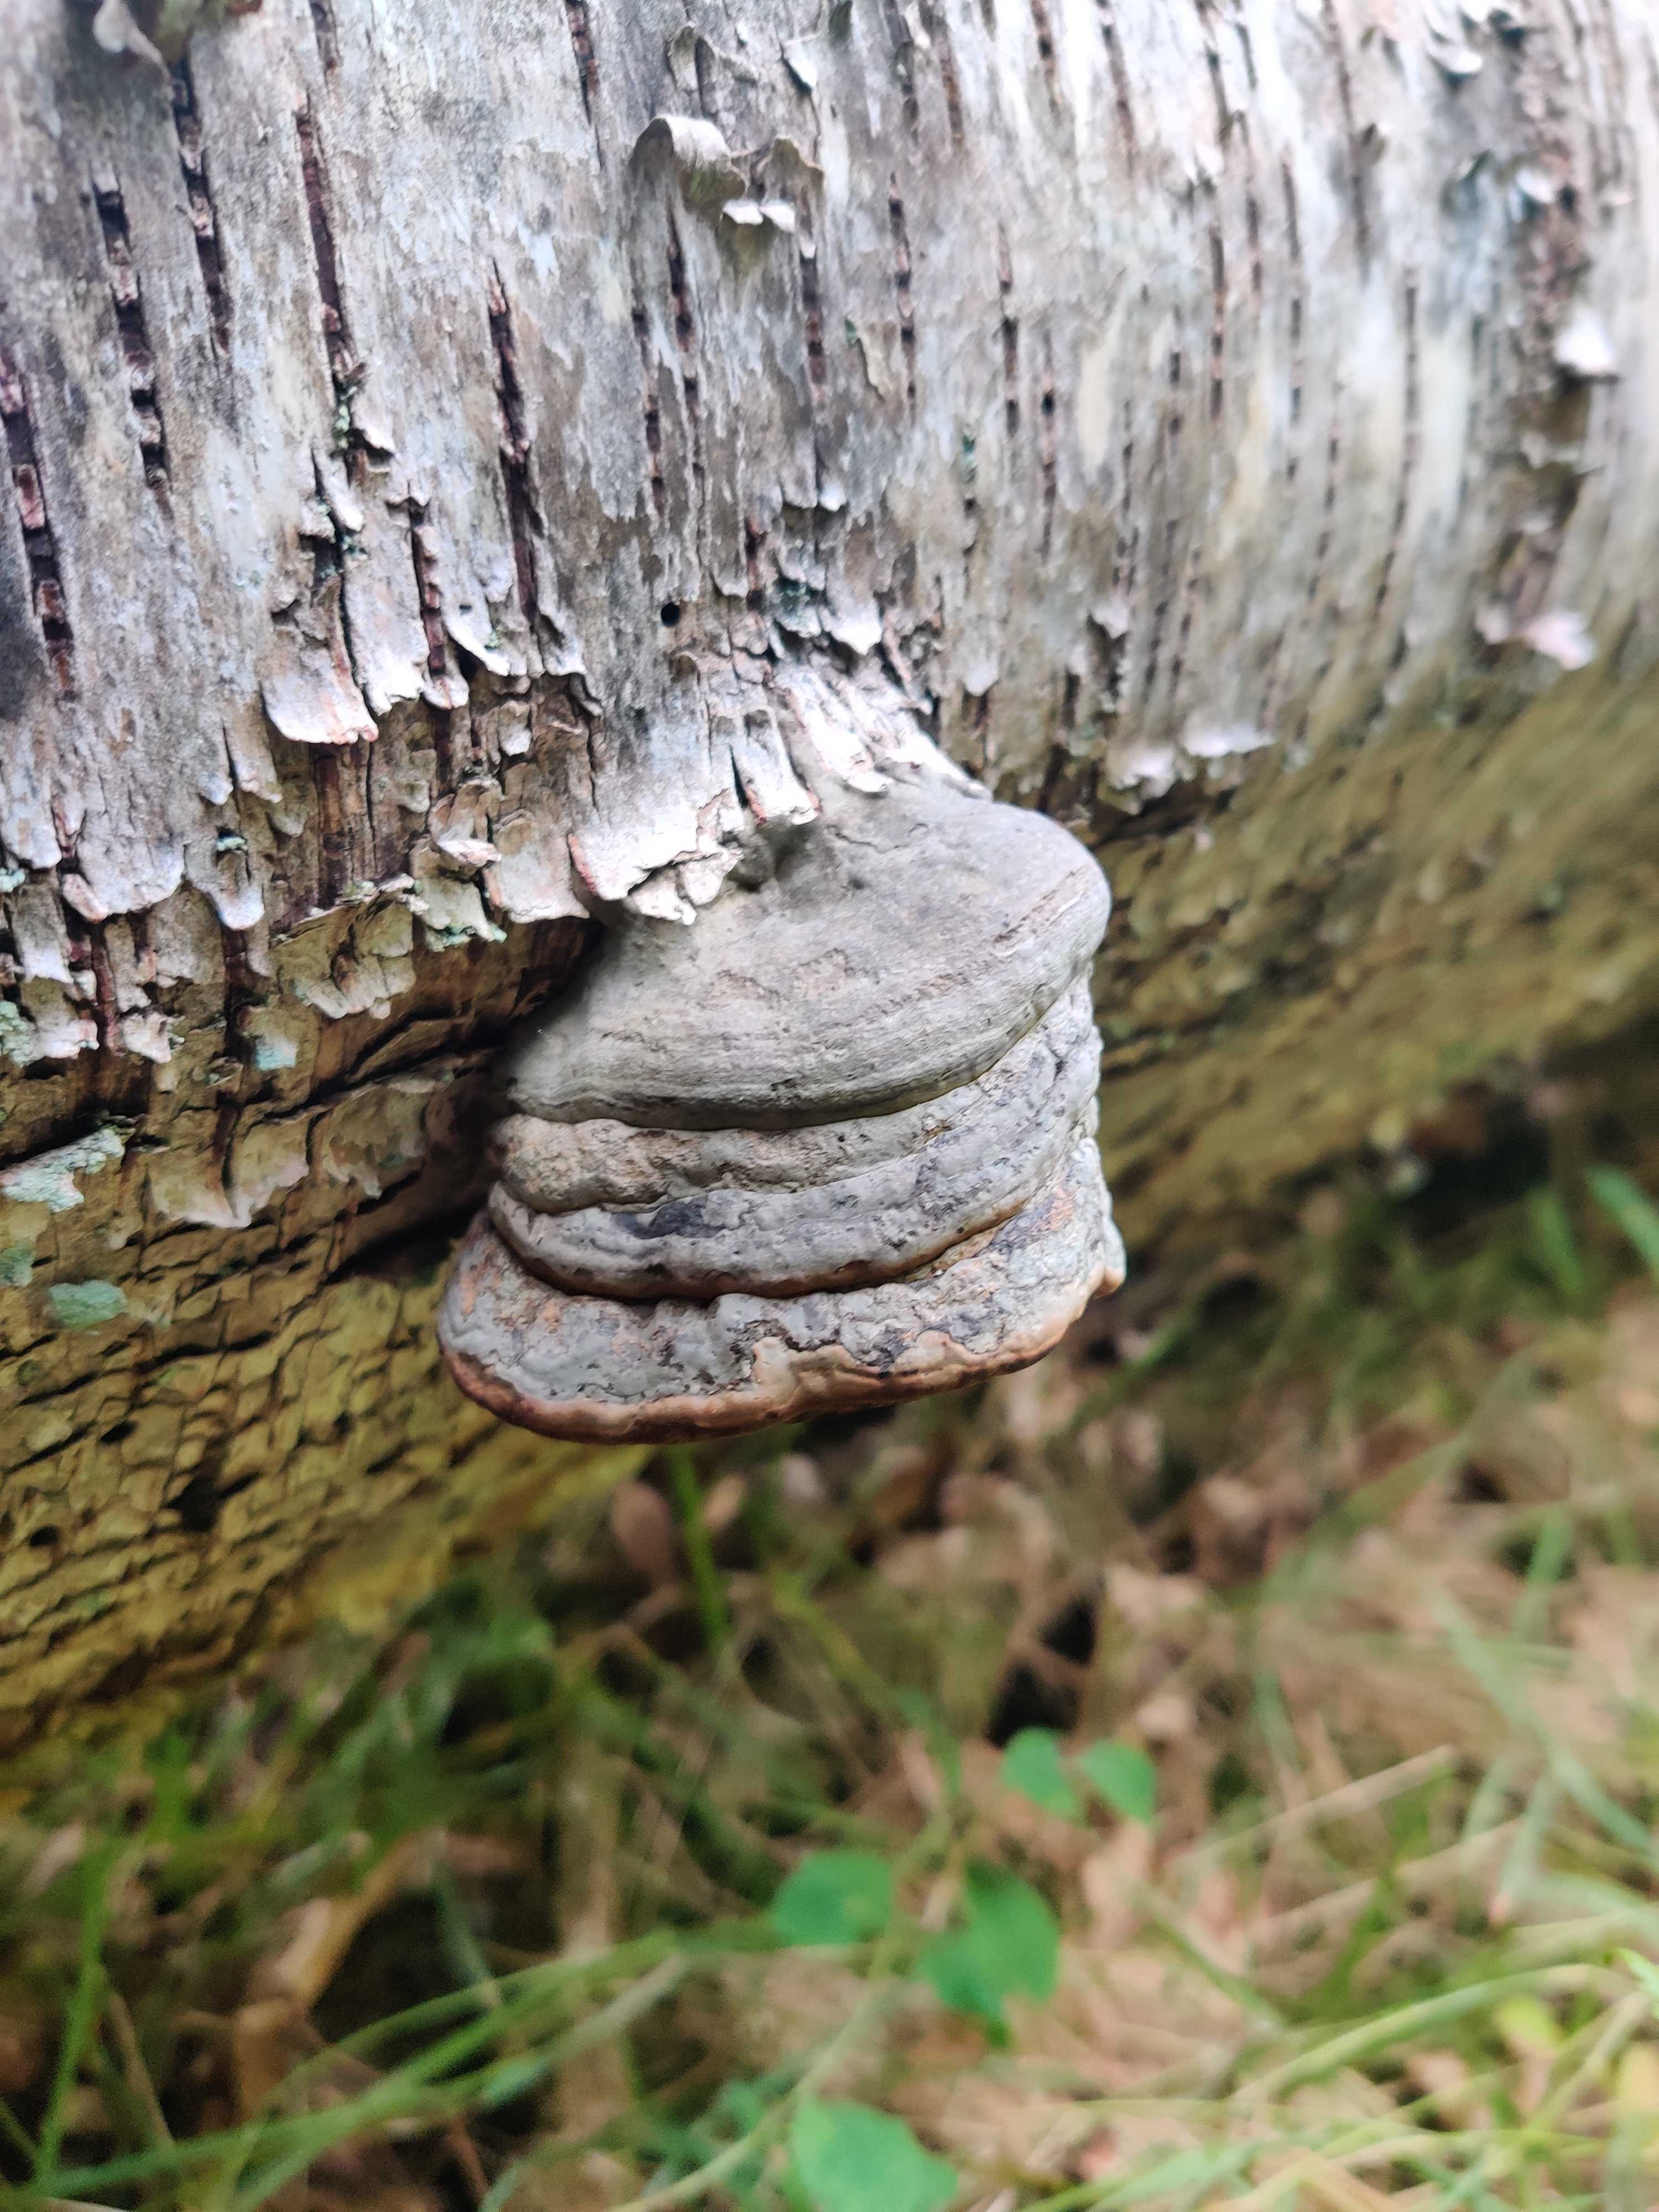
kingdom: Fungi
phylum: Basidiomycota
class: Agaricomycetes
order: Polyporales
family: Polyporaceae
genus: Fomes
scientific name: Fomes fomentarius
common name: tøndersvamp
